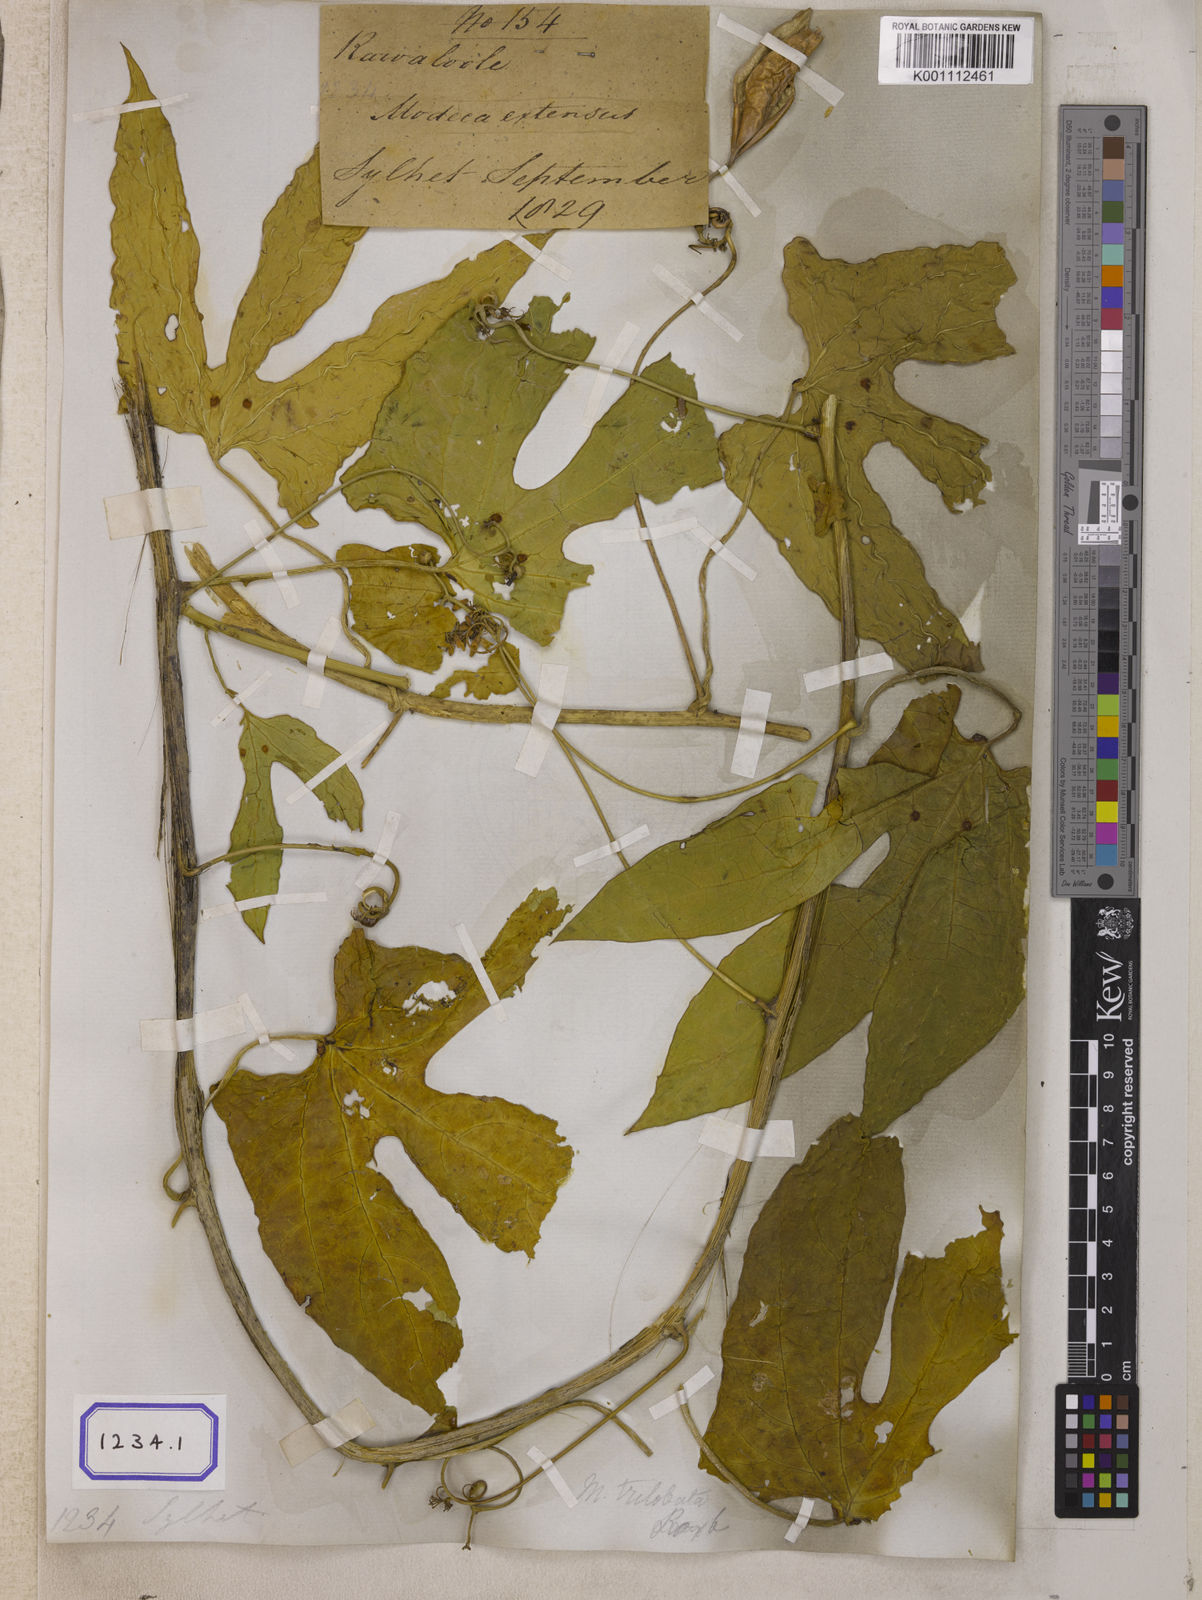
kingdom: Plantae
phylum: Tracheophyta
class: Magnoliopsida
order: Malpighiales
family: Passifloraceae
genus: Adenia
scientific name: Adenia trilobata
